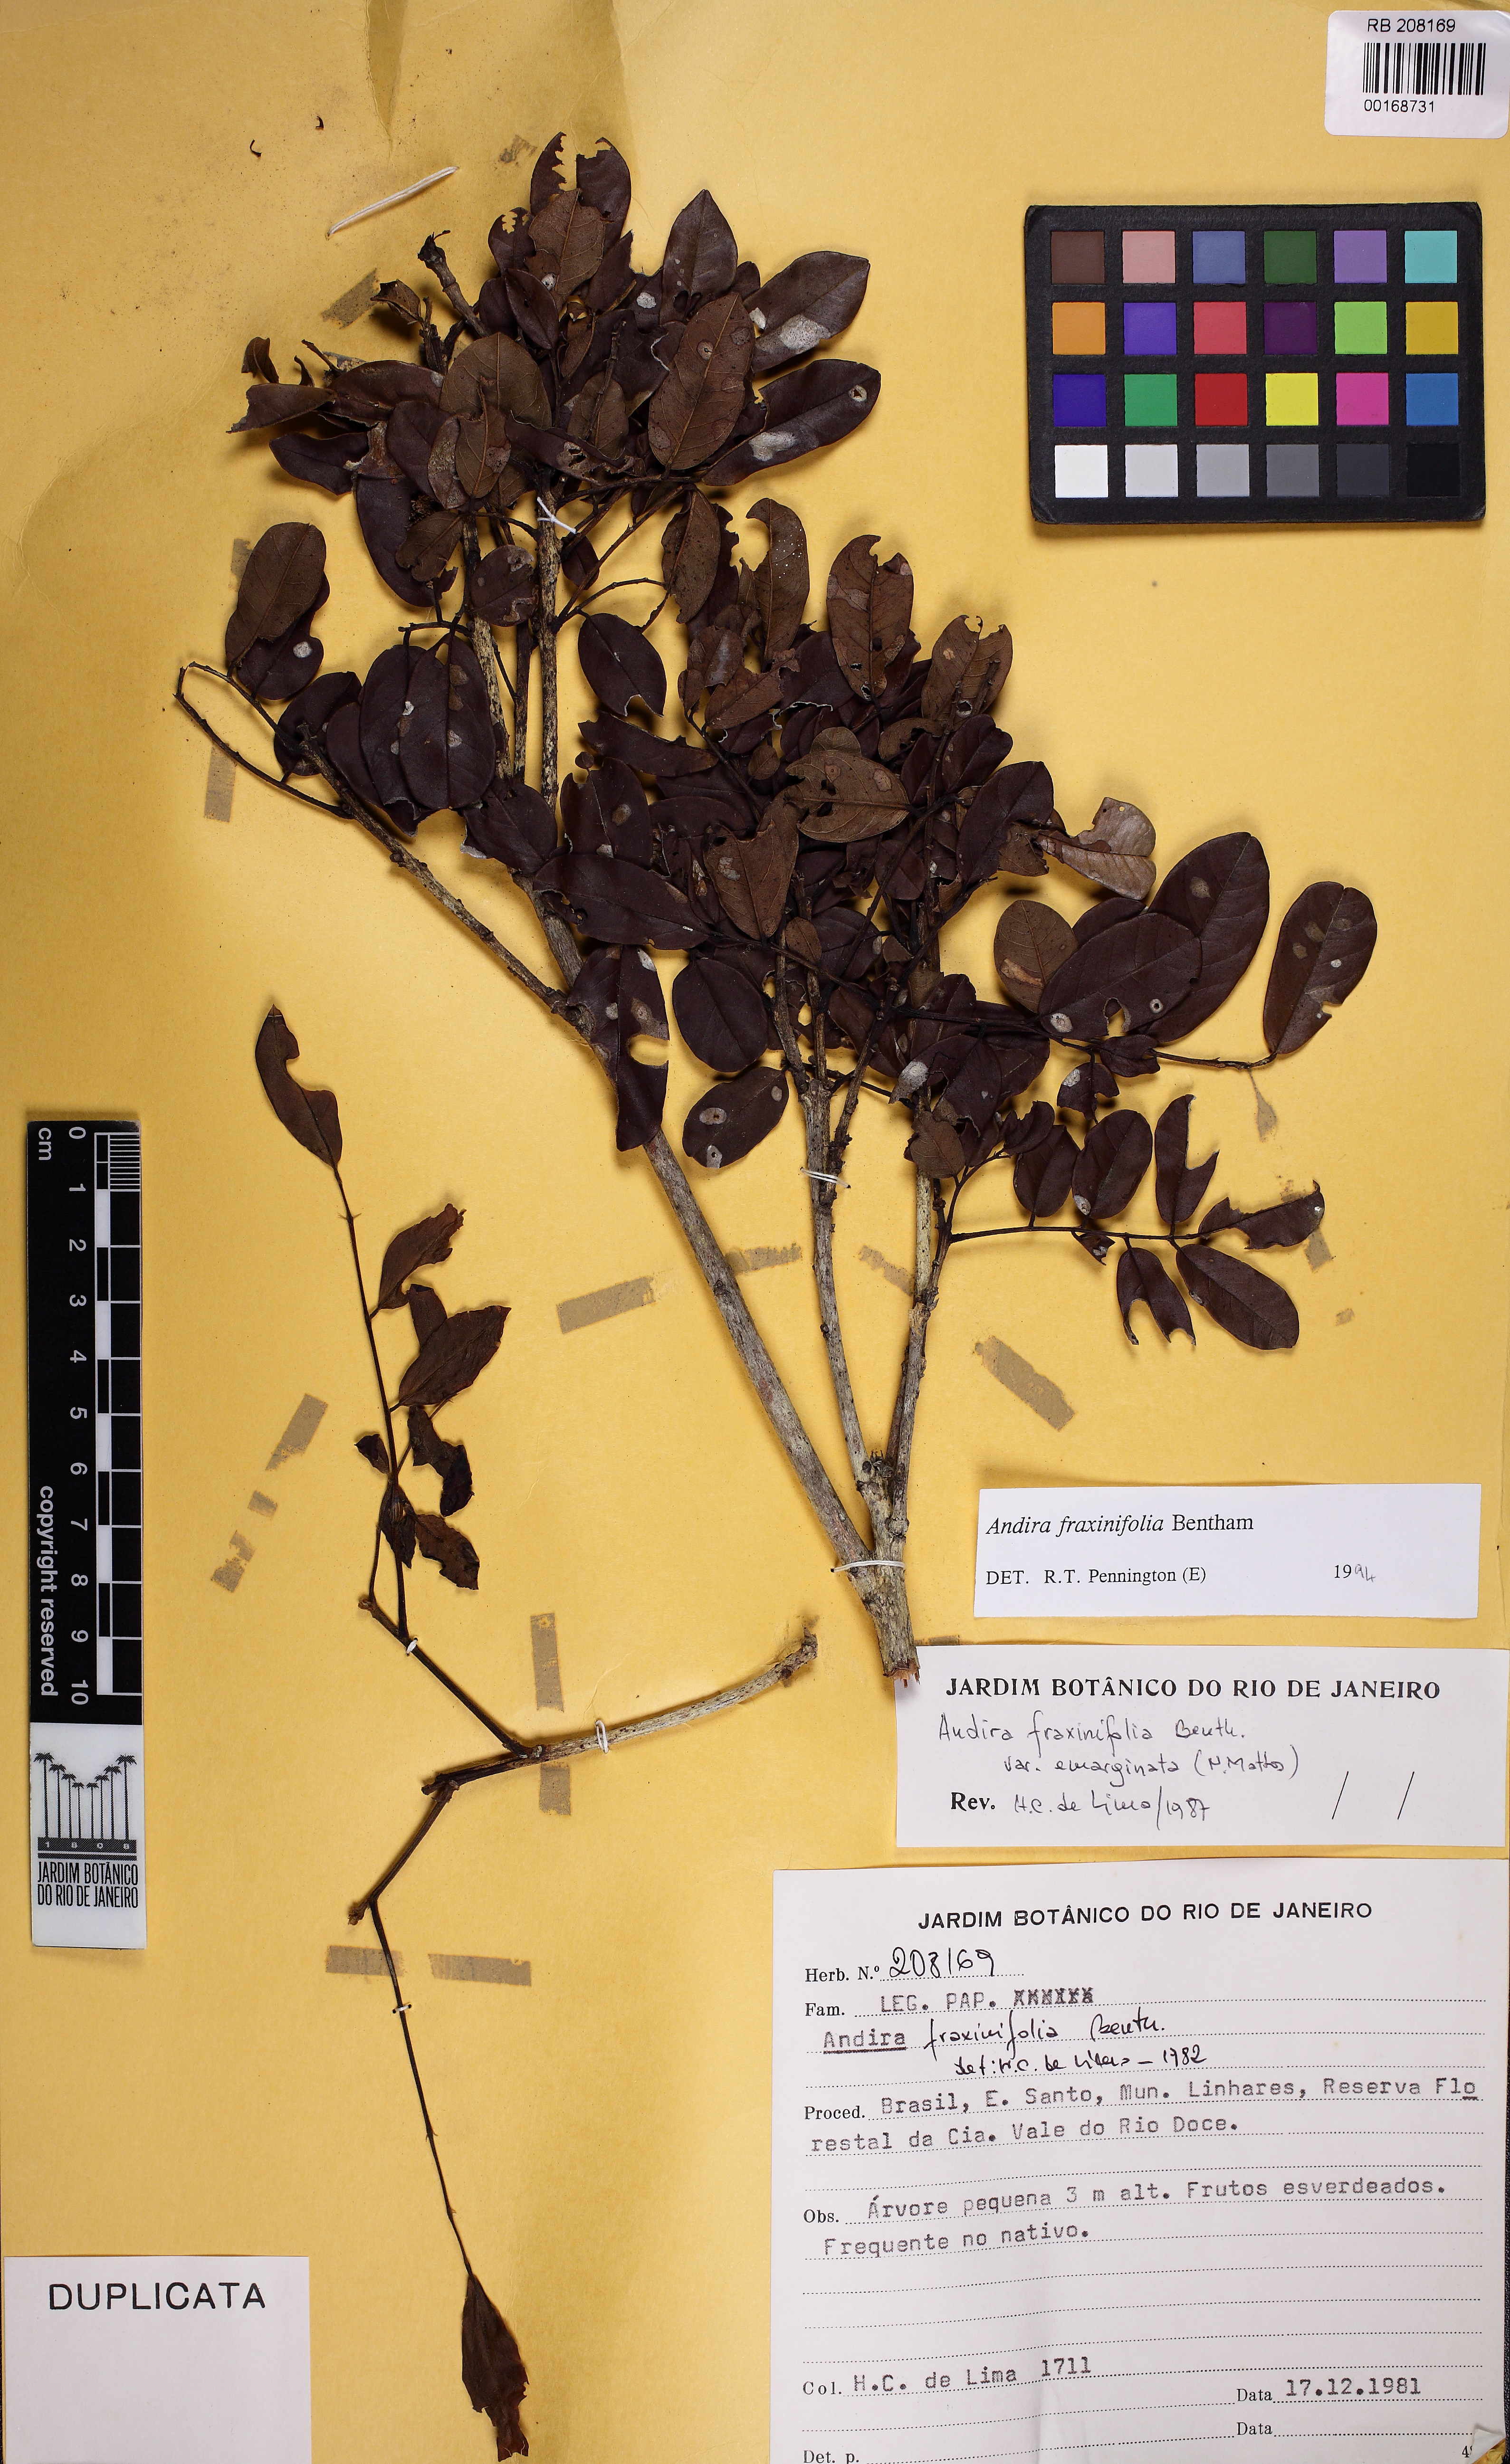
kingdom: Plantae
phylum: Tracheophyta
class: Magnoliopsida
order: Fabales
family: Fabaceae
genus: Andira
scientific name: Andira fraxinifolia
